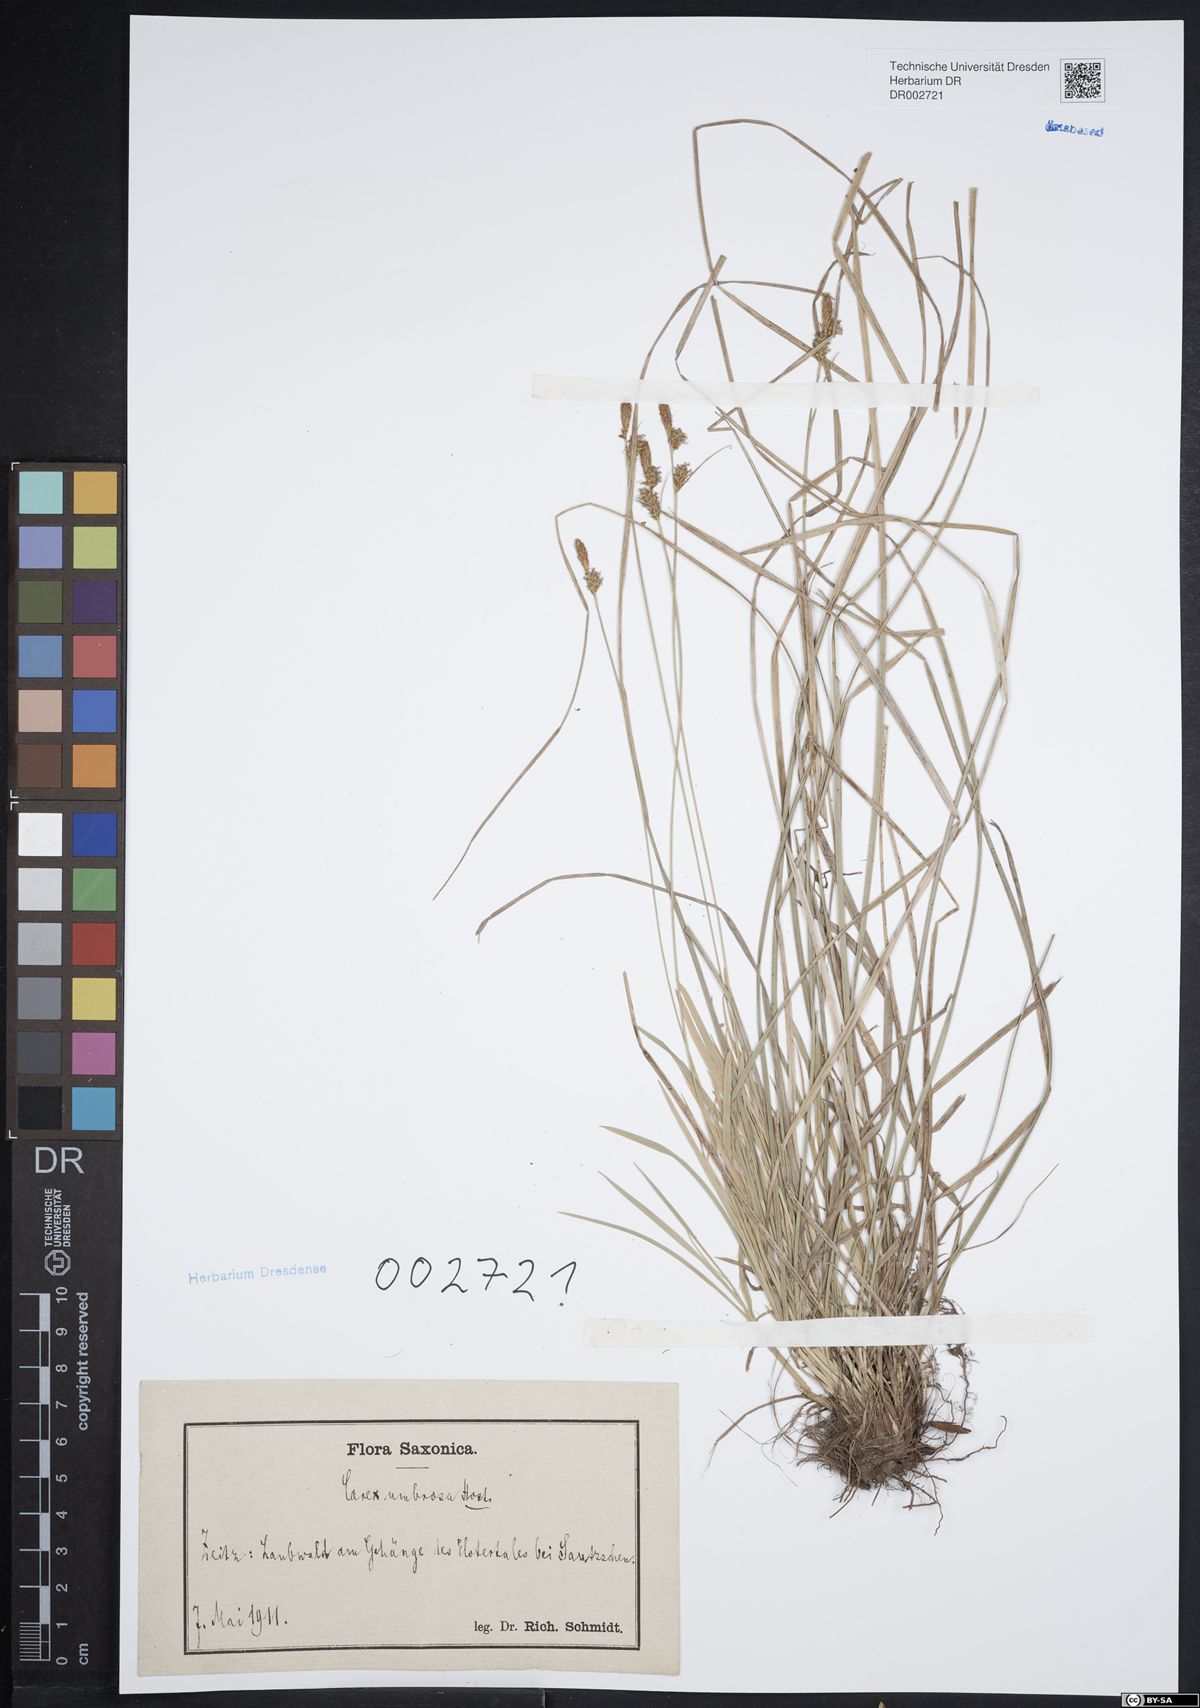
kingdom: Plantae
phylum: Tracheophyta
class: Liliopsida
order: Poales
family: Cyperaceae
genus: Carex
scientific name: Carex umbrosa
